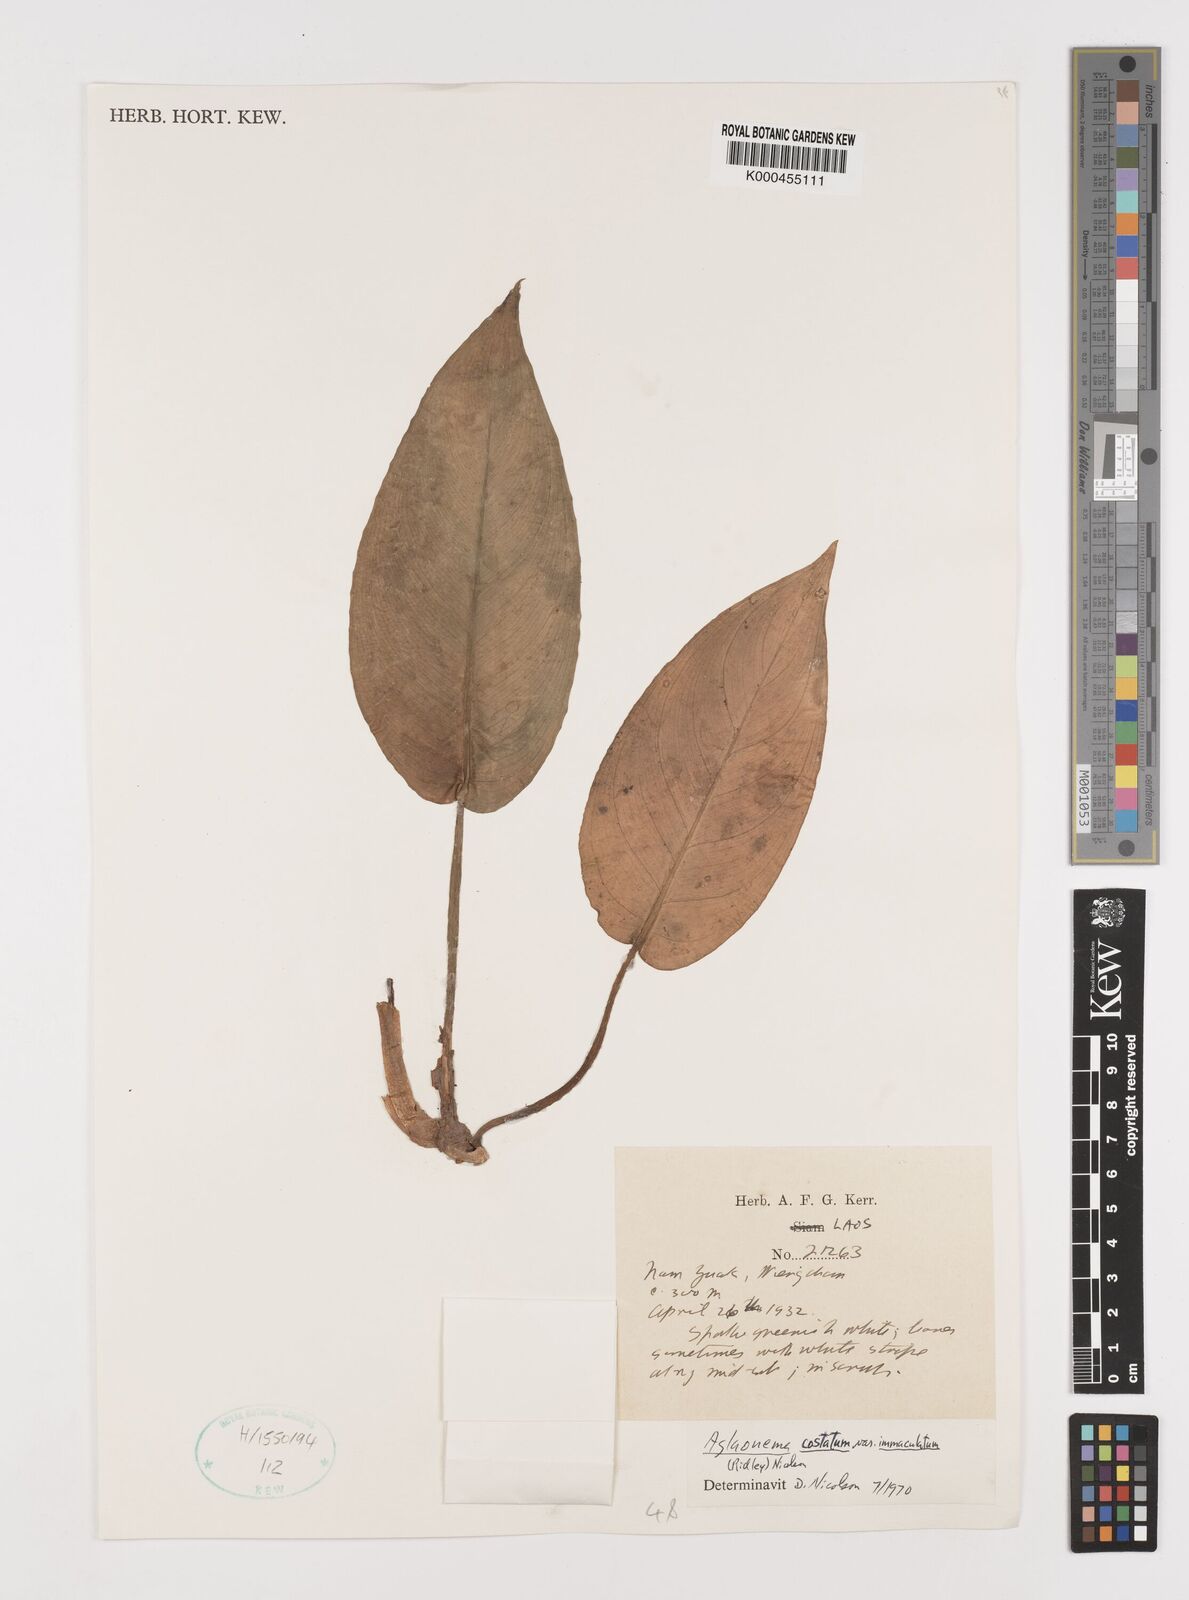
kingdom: Plantae
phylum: Tracheophyta
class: Liliopsida
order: Alismatales
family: Araceae
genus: Aglaonema
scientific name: Aglaonema costatum
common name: Chinese evergreen
